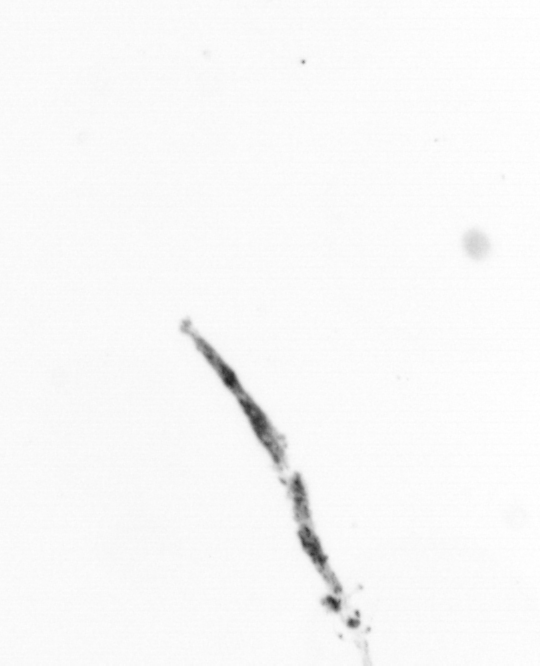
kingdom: Chromista
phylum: Ochrophyta
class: Bacillariophyceae
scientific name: Bacillariophyceae
